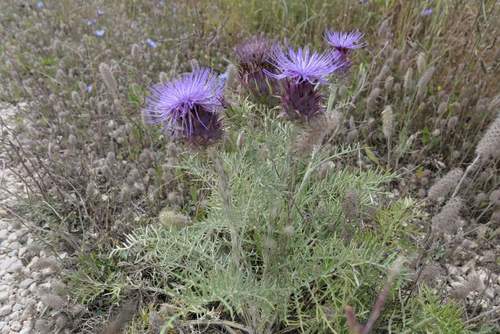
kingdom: Plantae
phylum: Tracheophyta
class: Magnoliopsida
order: Asterales
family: Asteraceae
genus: Cynara
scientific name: Cynara humilis
